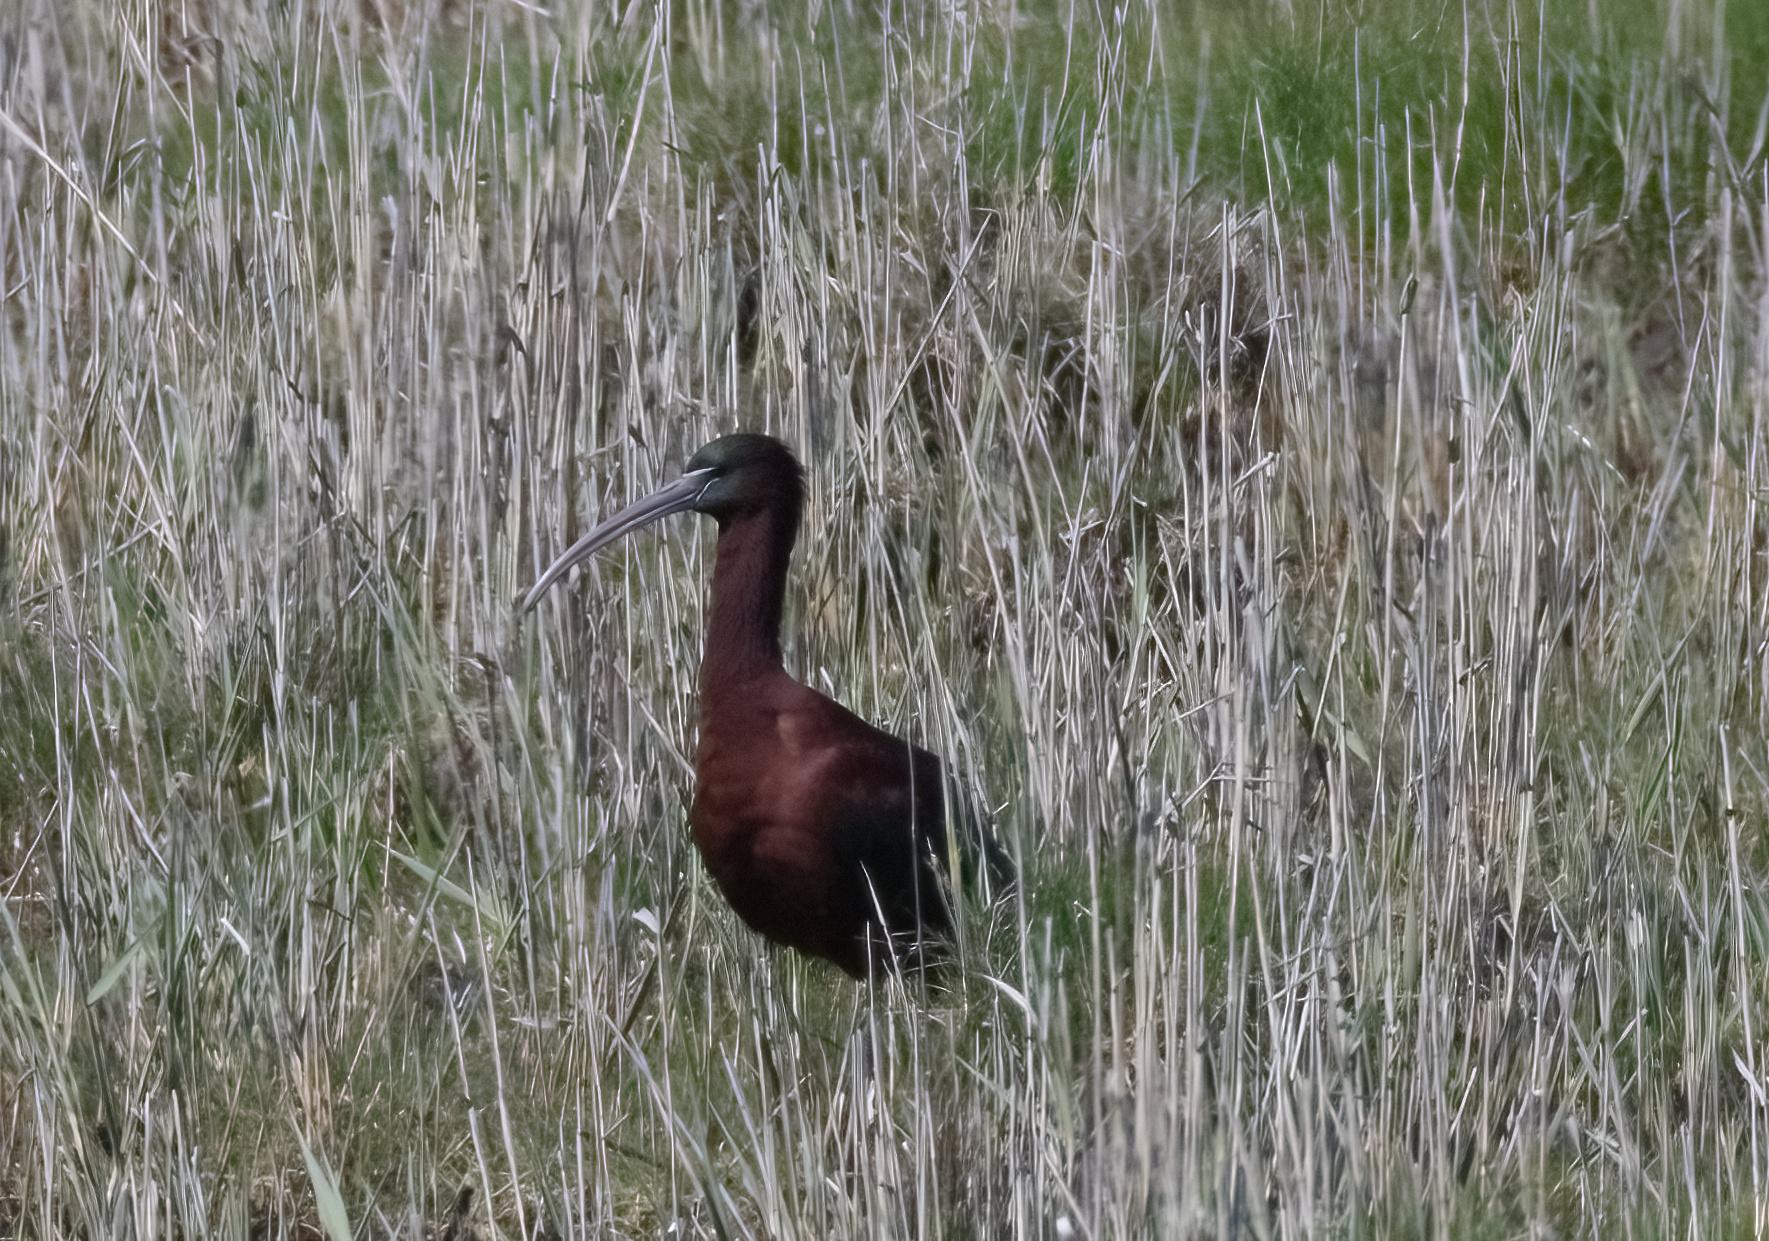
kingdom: Animalia
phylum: Chordata
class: Aves
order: Pelecaniformes
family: Threskiornithidae
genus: Plegadis
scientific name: Plegadis falcinellus
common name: Sort ibis
